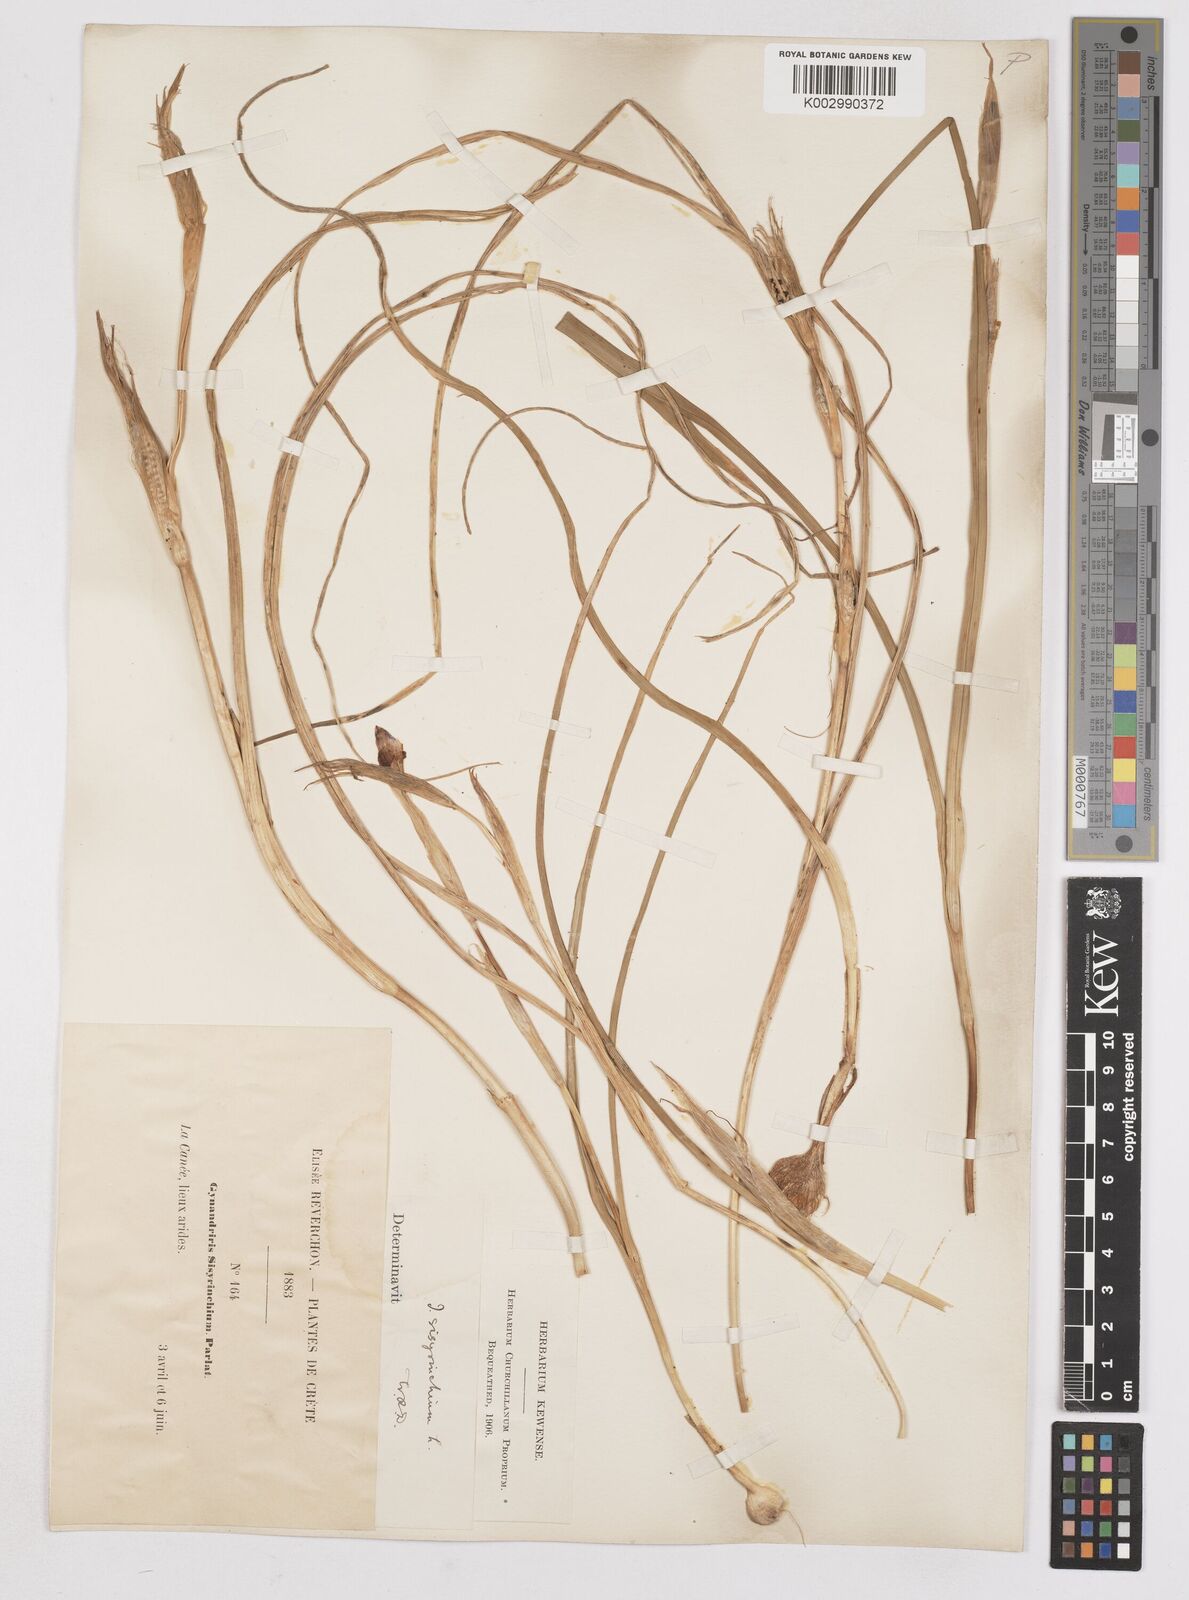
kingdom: Plantae
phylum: Tracheophyta
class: Liliopsida
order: Asparagales
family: Iridaceae
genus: Moraea
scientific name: Moraea sisyrinchium
